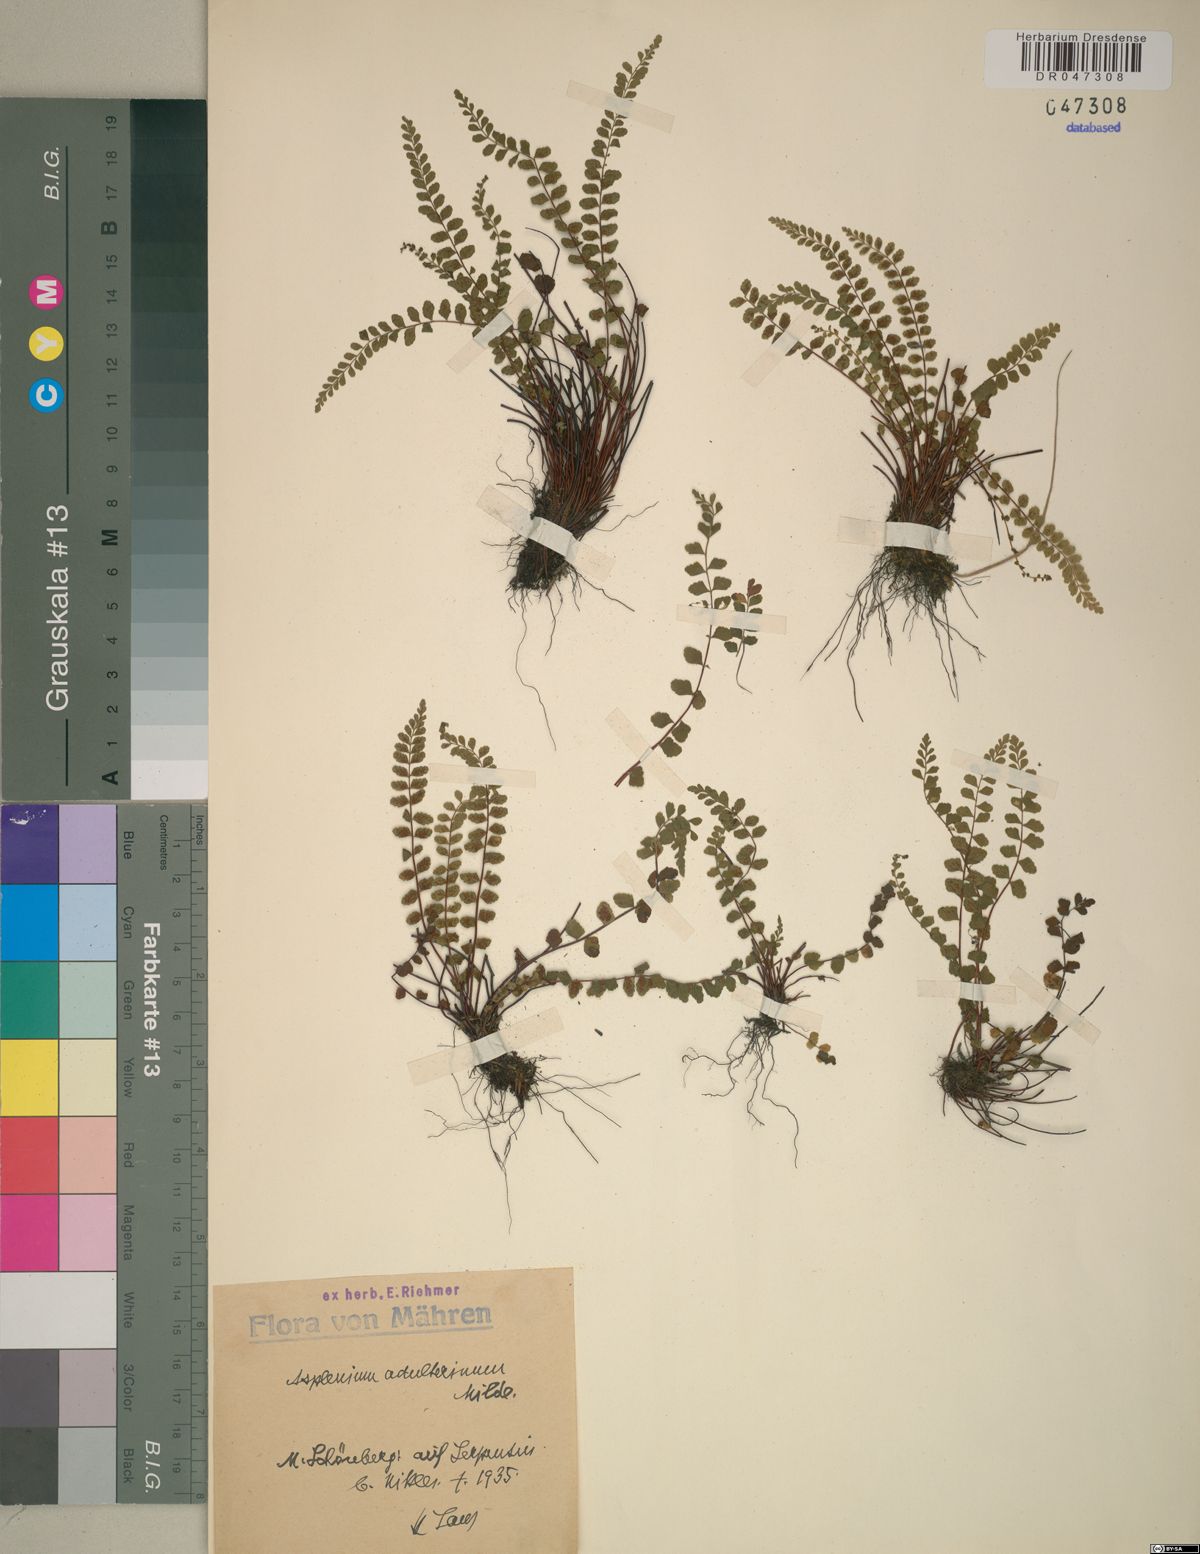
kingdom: Plantae
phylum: Tracheophyta
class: Polypodiopsida
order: Polypodiales
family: Aspleniaceae
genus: Asplenium
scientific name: Asplenium adulterinum
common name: Adulterated spleenwort
